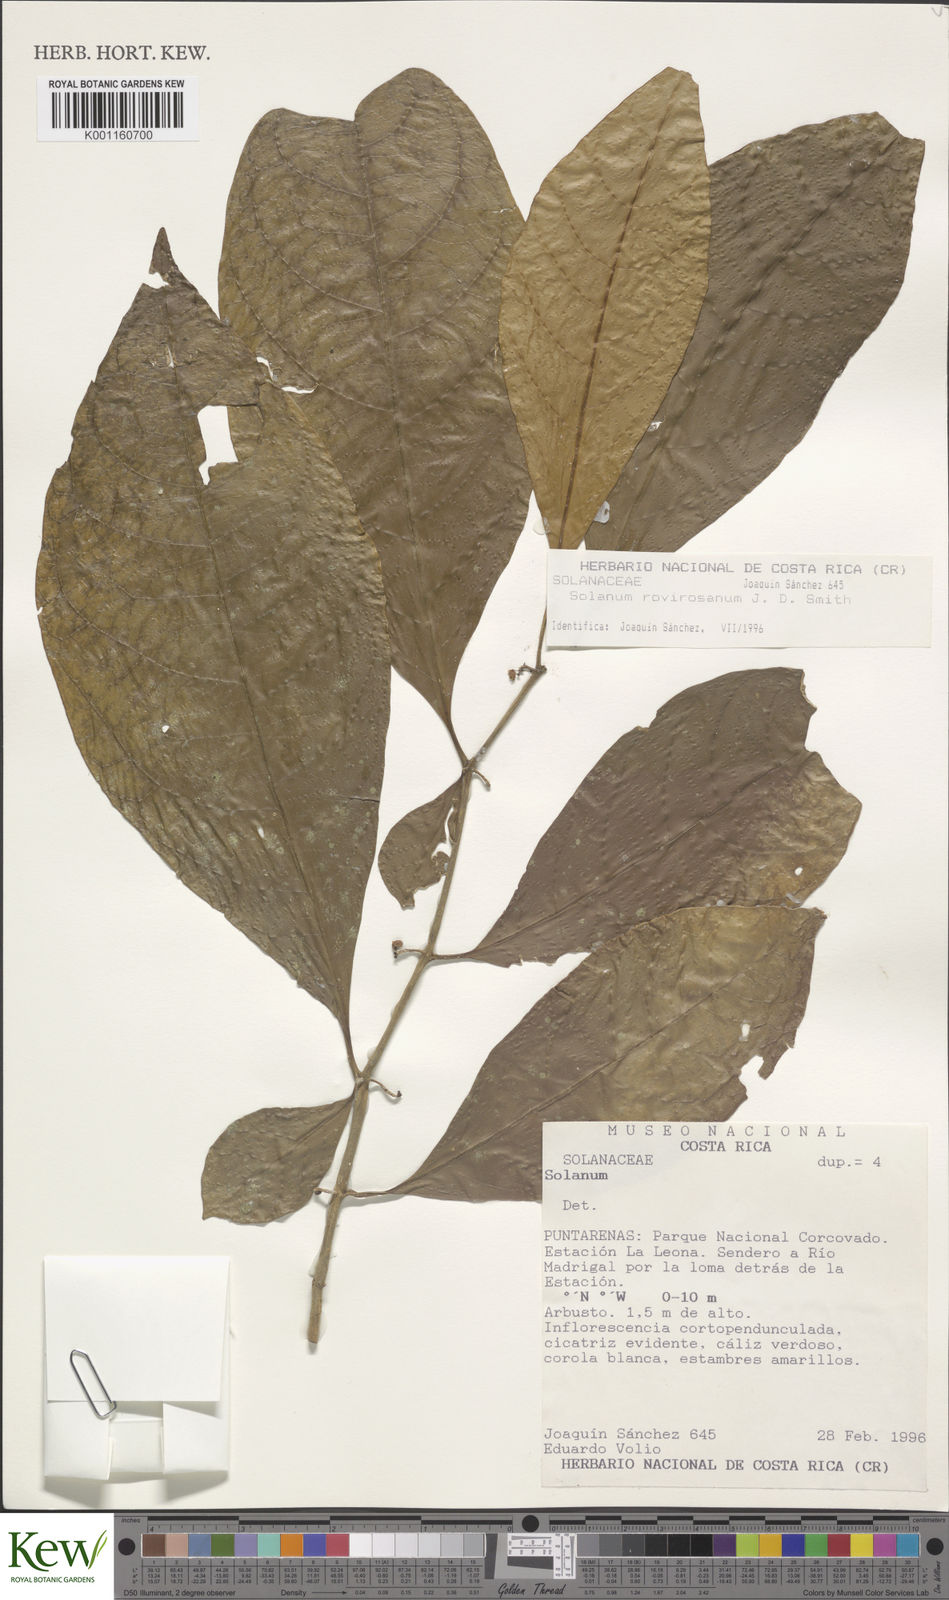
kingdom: Plantae
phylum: Tracheophyta
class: Magnoliopsida
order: Solanales
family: Solanaceae
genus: Solanum
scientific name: Solanum rovirosanum
